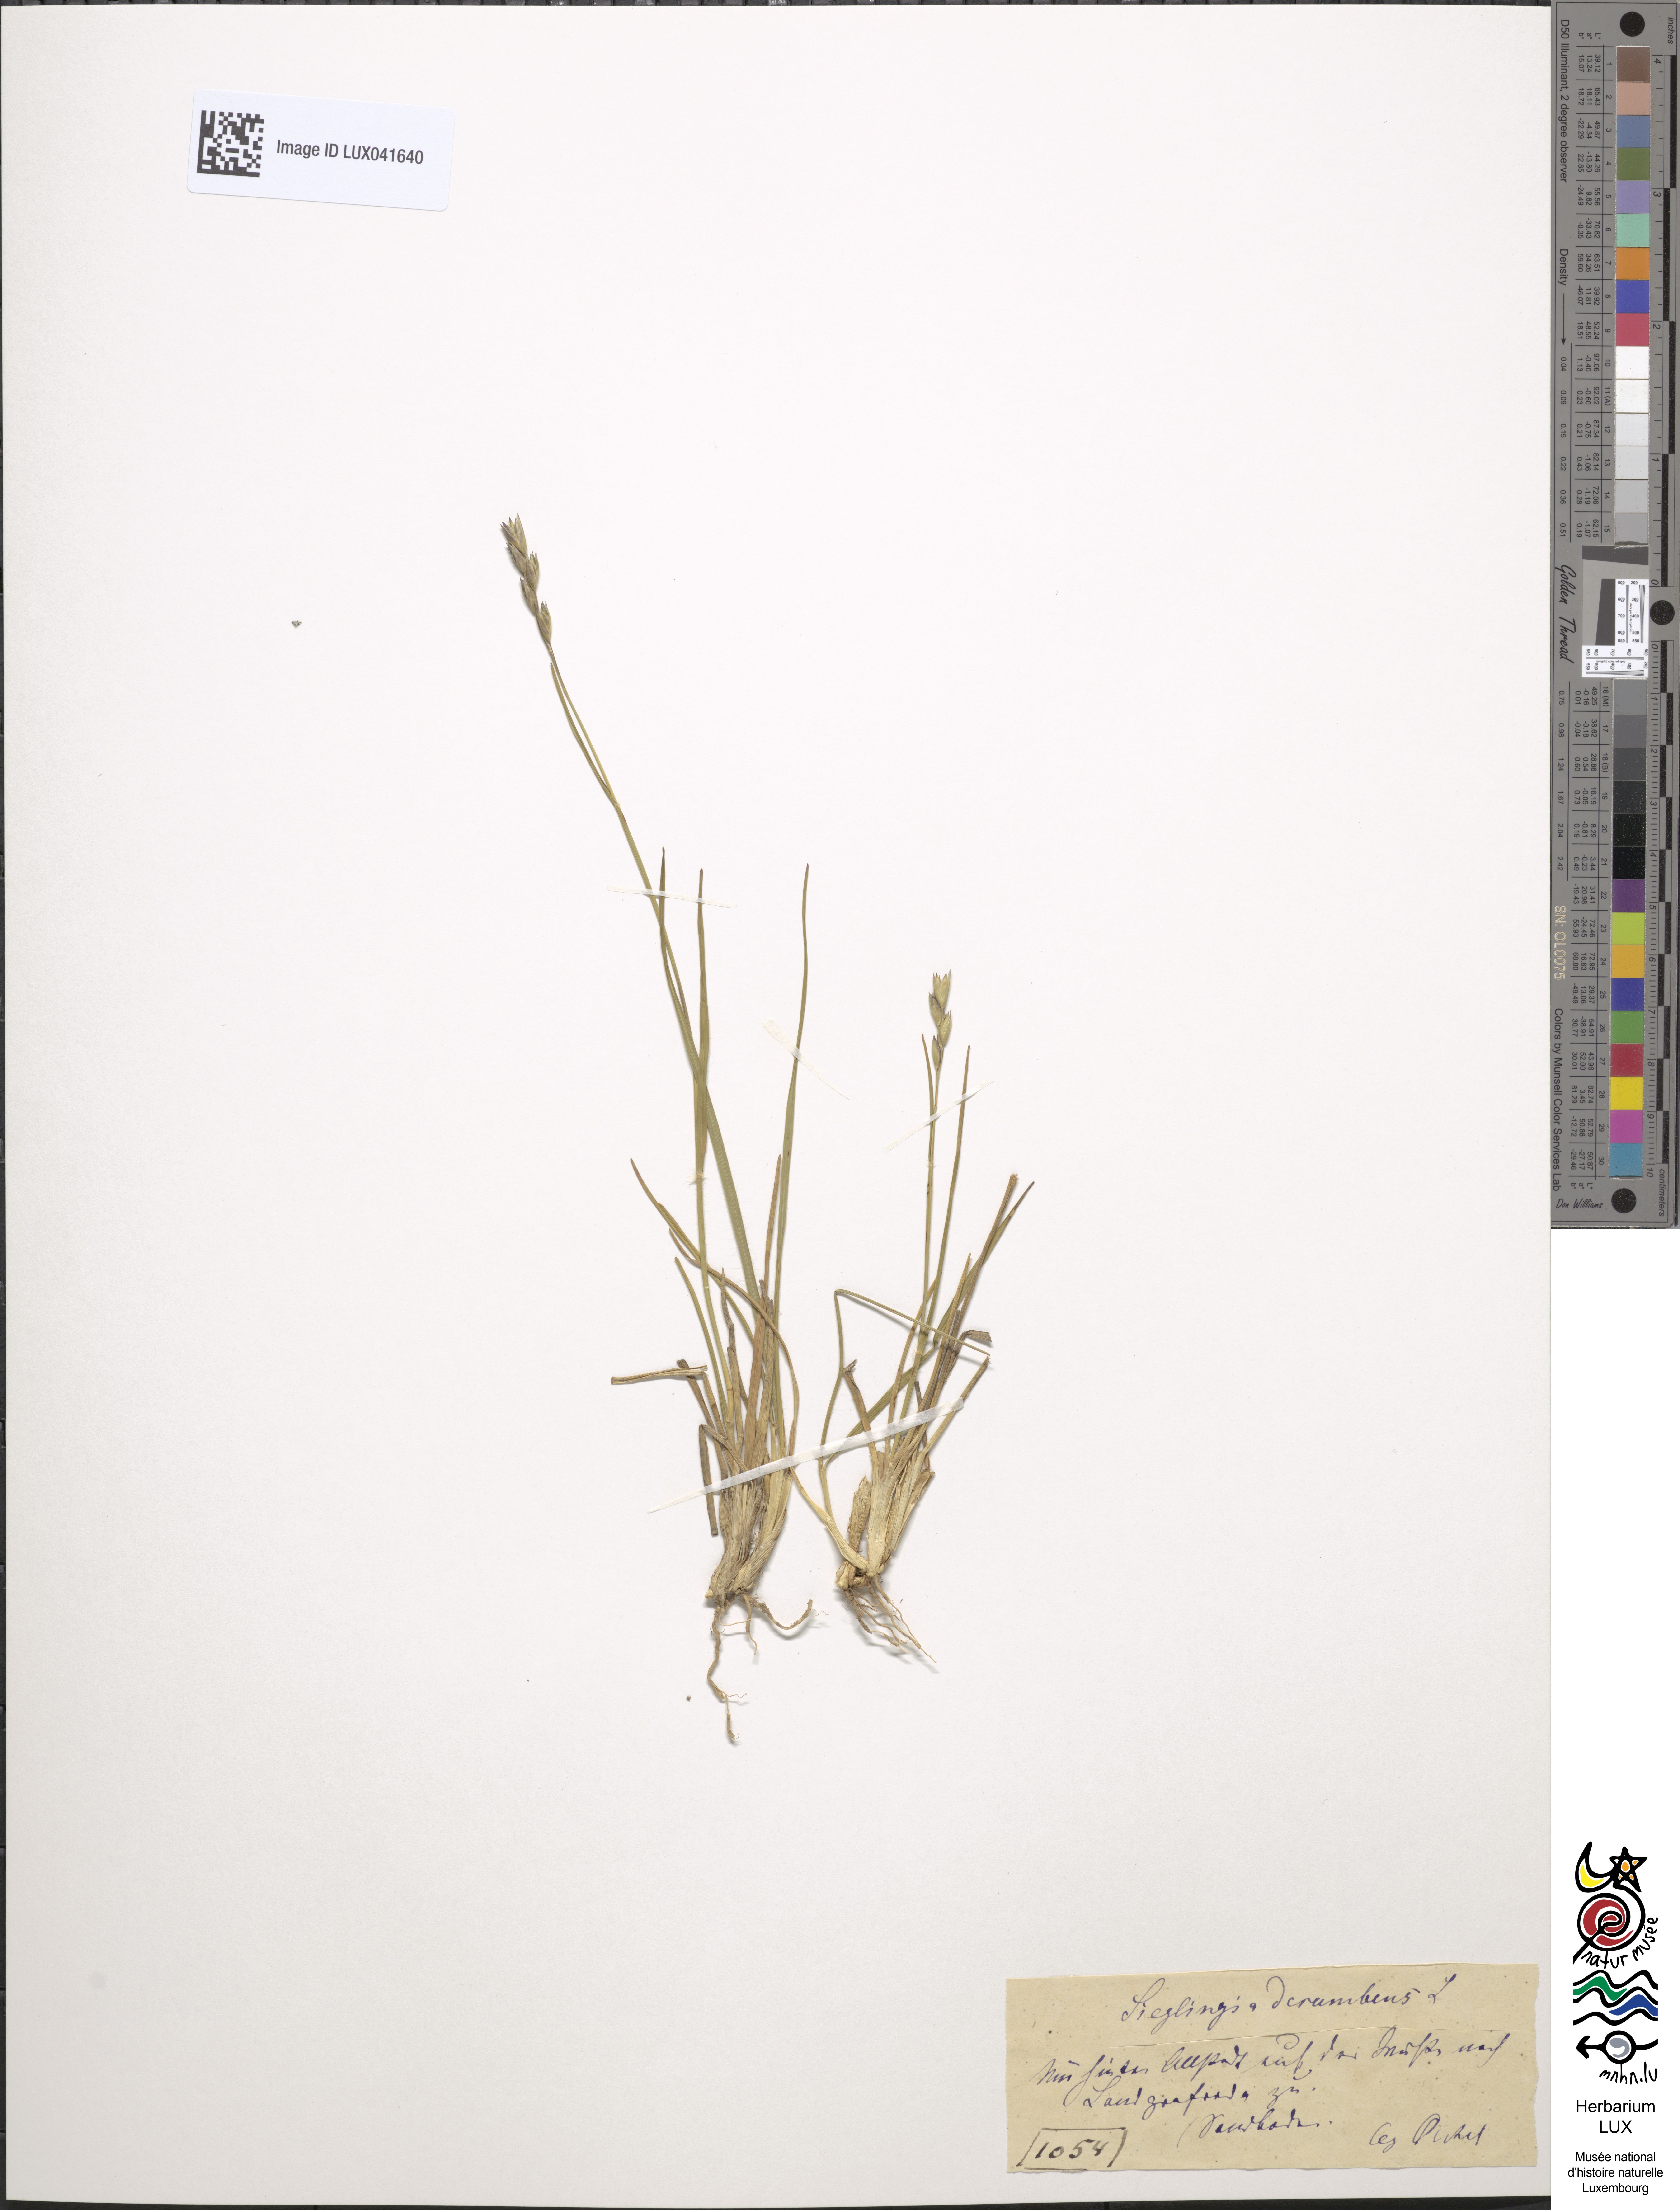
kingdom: Plantae
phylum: Tracheophyta
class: Liliopsida
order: Poales
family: Poaceae
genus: Danthonia
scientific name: Danthonia decumbens
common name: Common heathgrass
